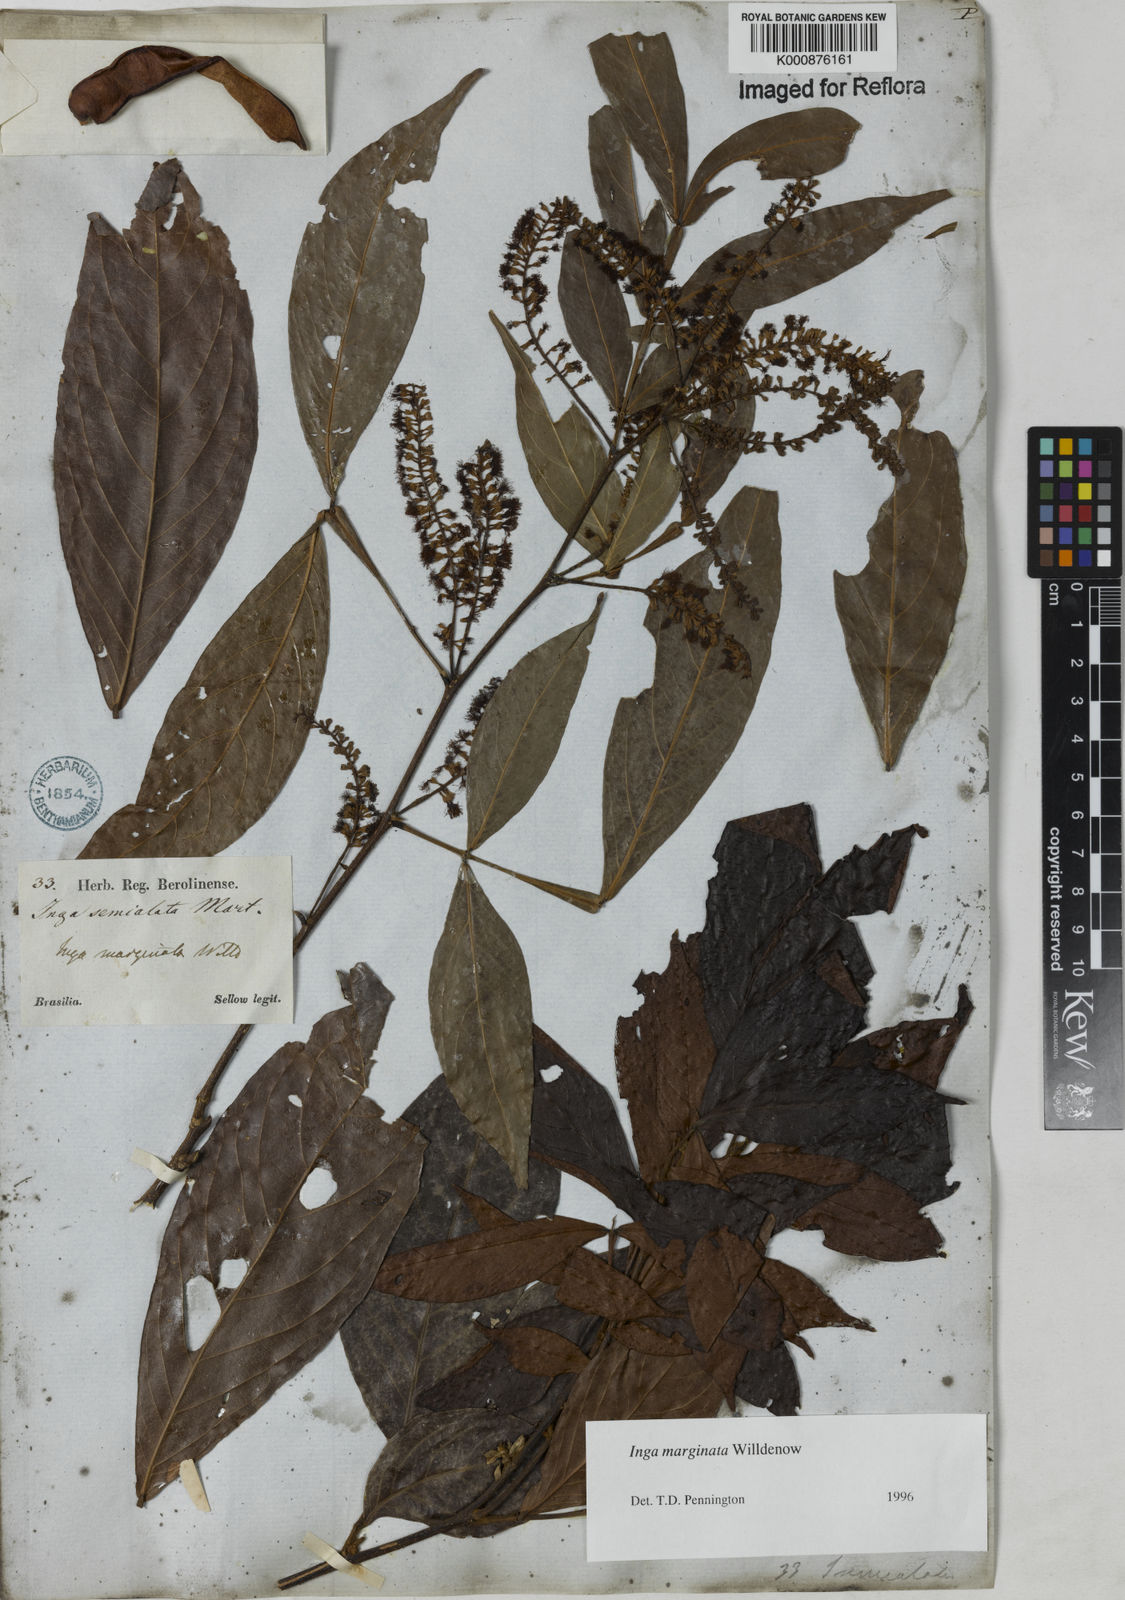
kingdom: Plantae
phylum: Tracheophyta
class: Magnoliopsida
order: Fabales
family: Fabaceae
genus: Inga
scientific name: Inga marginata
